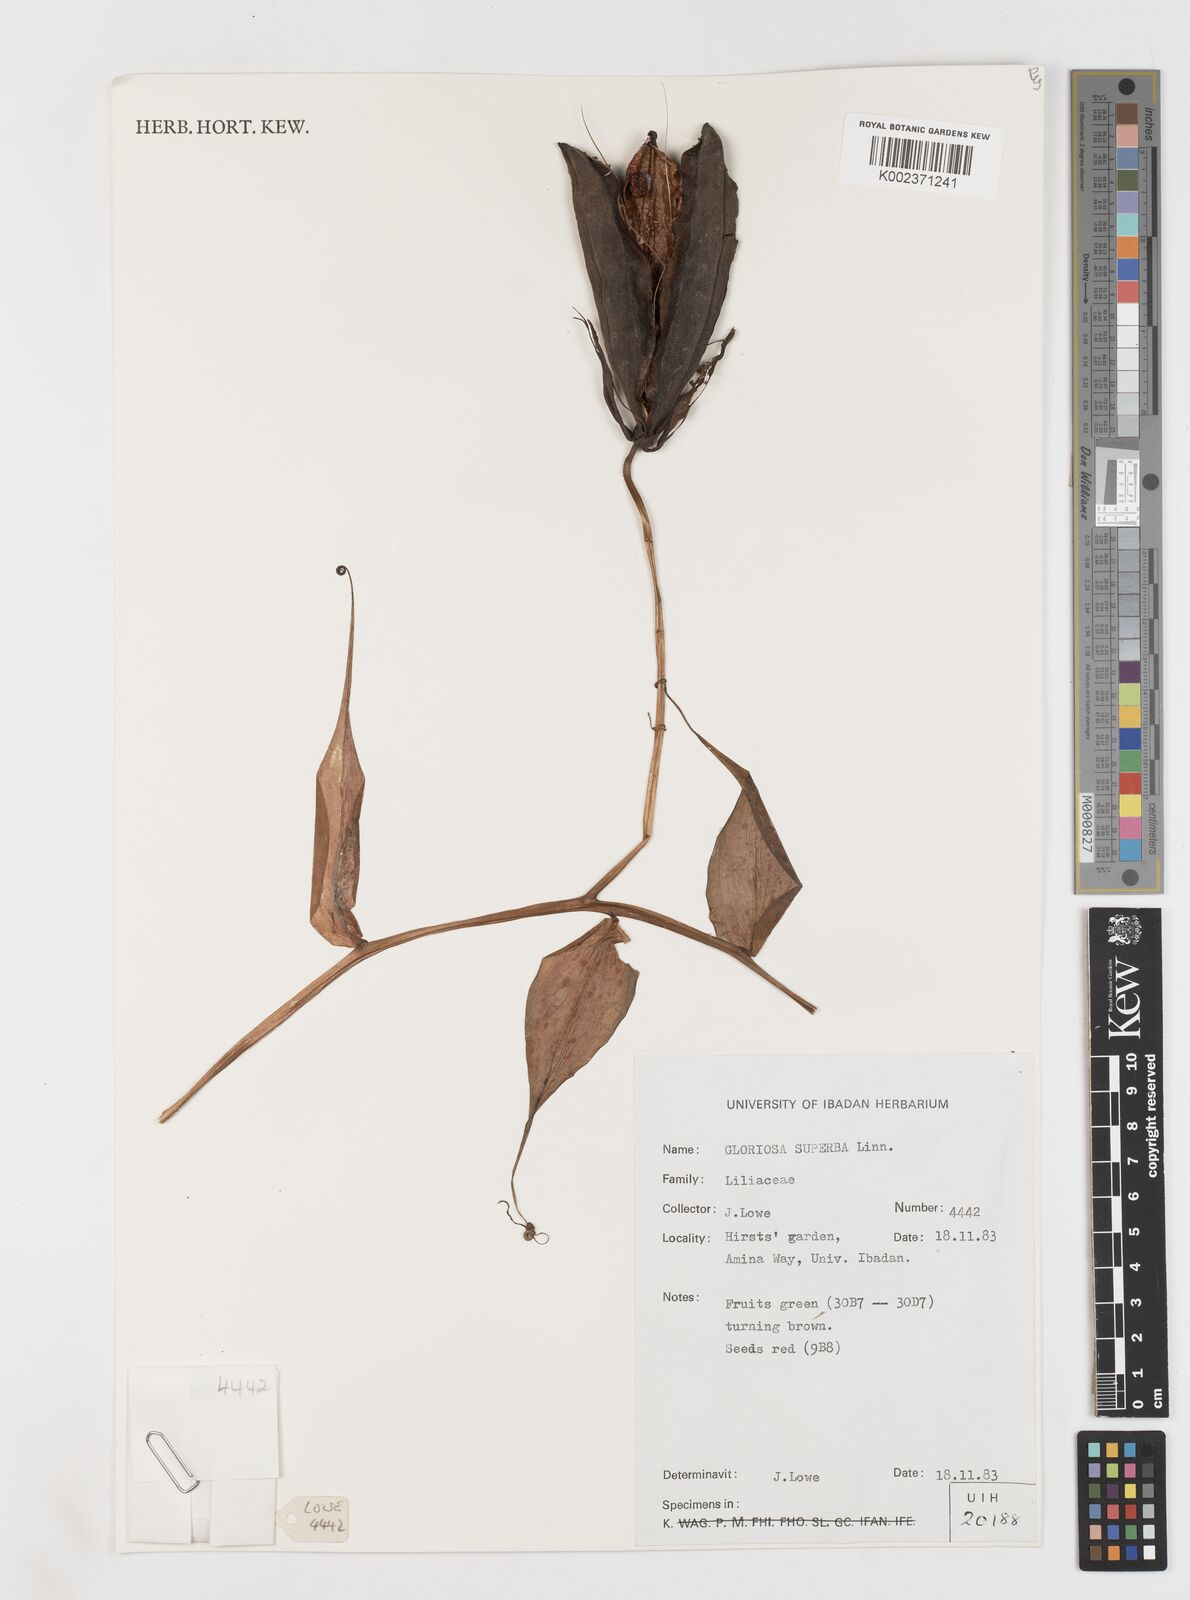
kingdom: Plantae
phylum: Tracheophyta
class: Liliopsida
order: Liliales
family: Colchicaceae
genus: Gloriosa
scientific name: Gloriosa superba
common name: Flame lily
